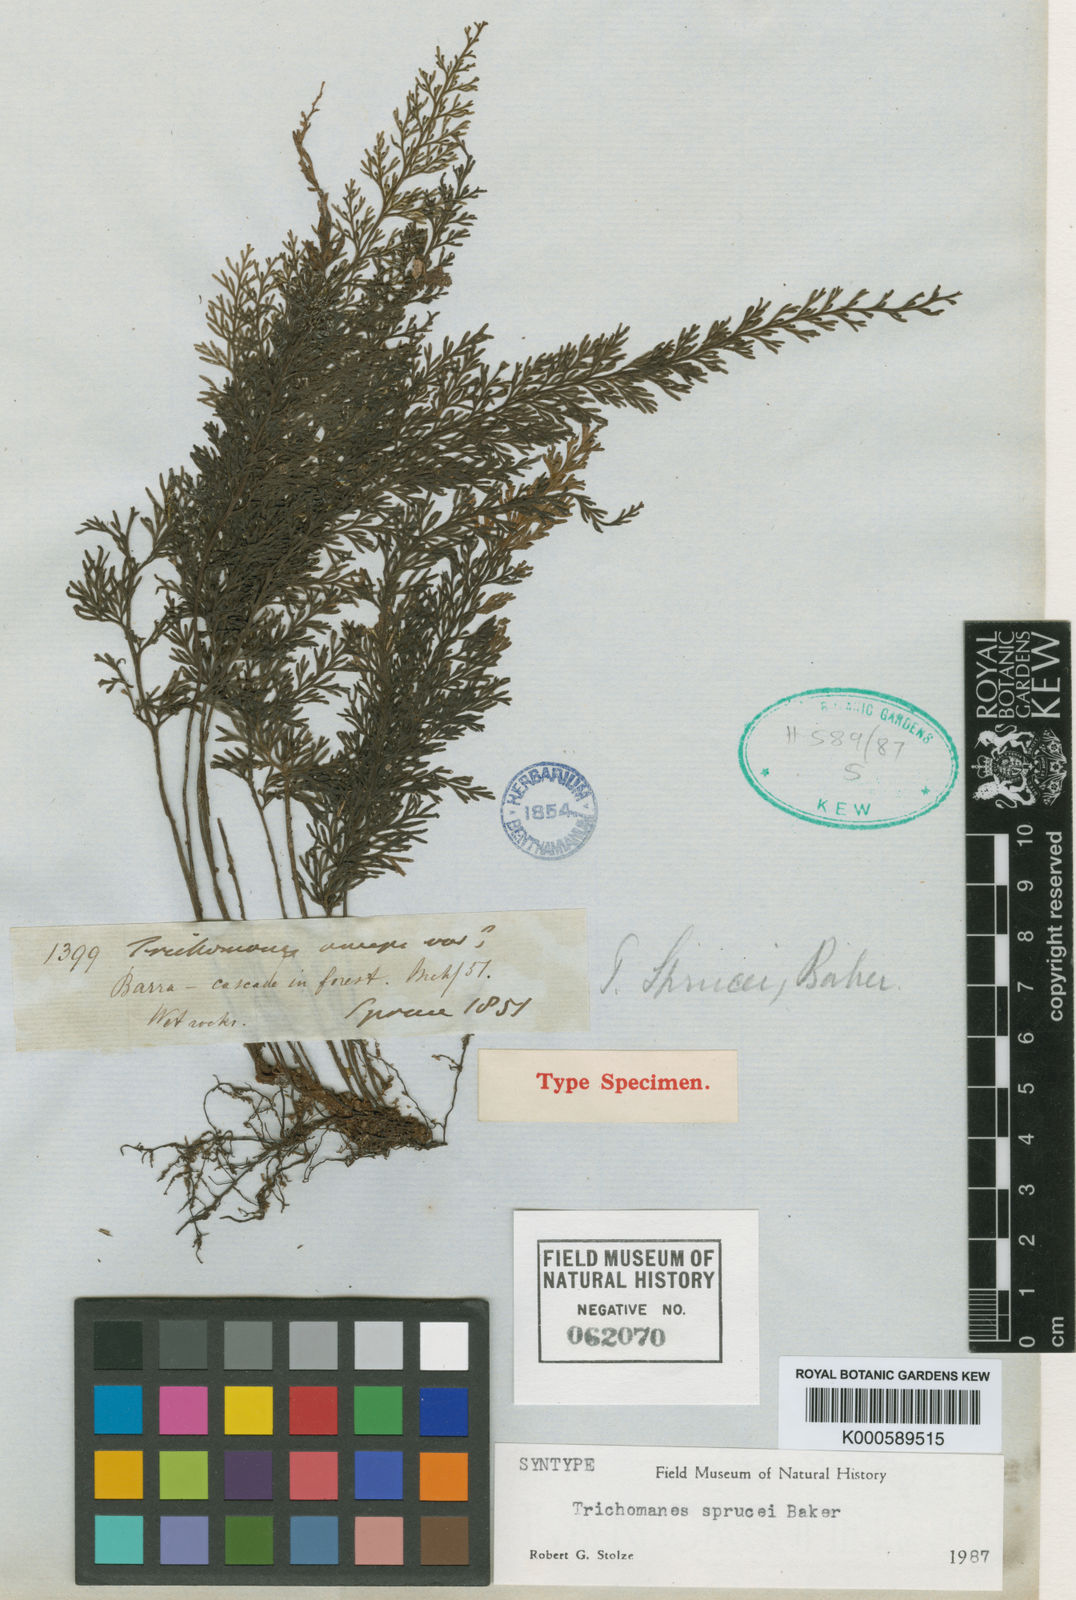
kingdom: Plantae
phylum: Tracheophyta
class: Polypodiopsida
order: Hymenophyllales
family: Hymenophyllaceae
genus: Abrodictyum
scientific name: Abrodictyum sprucei
